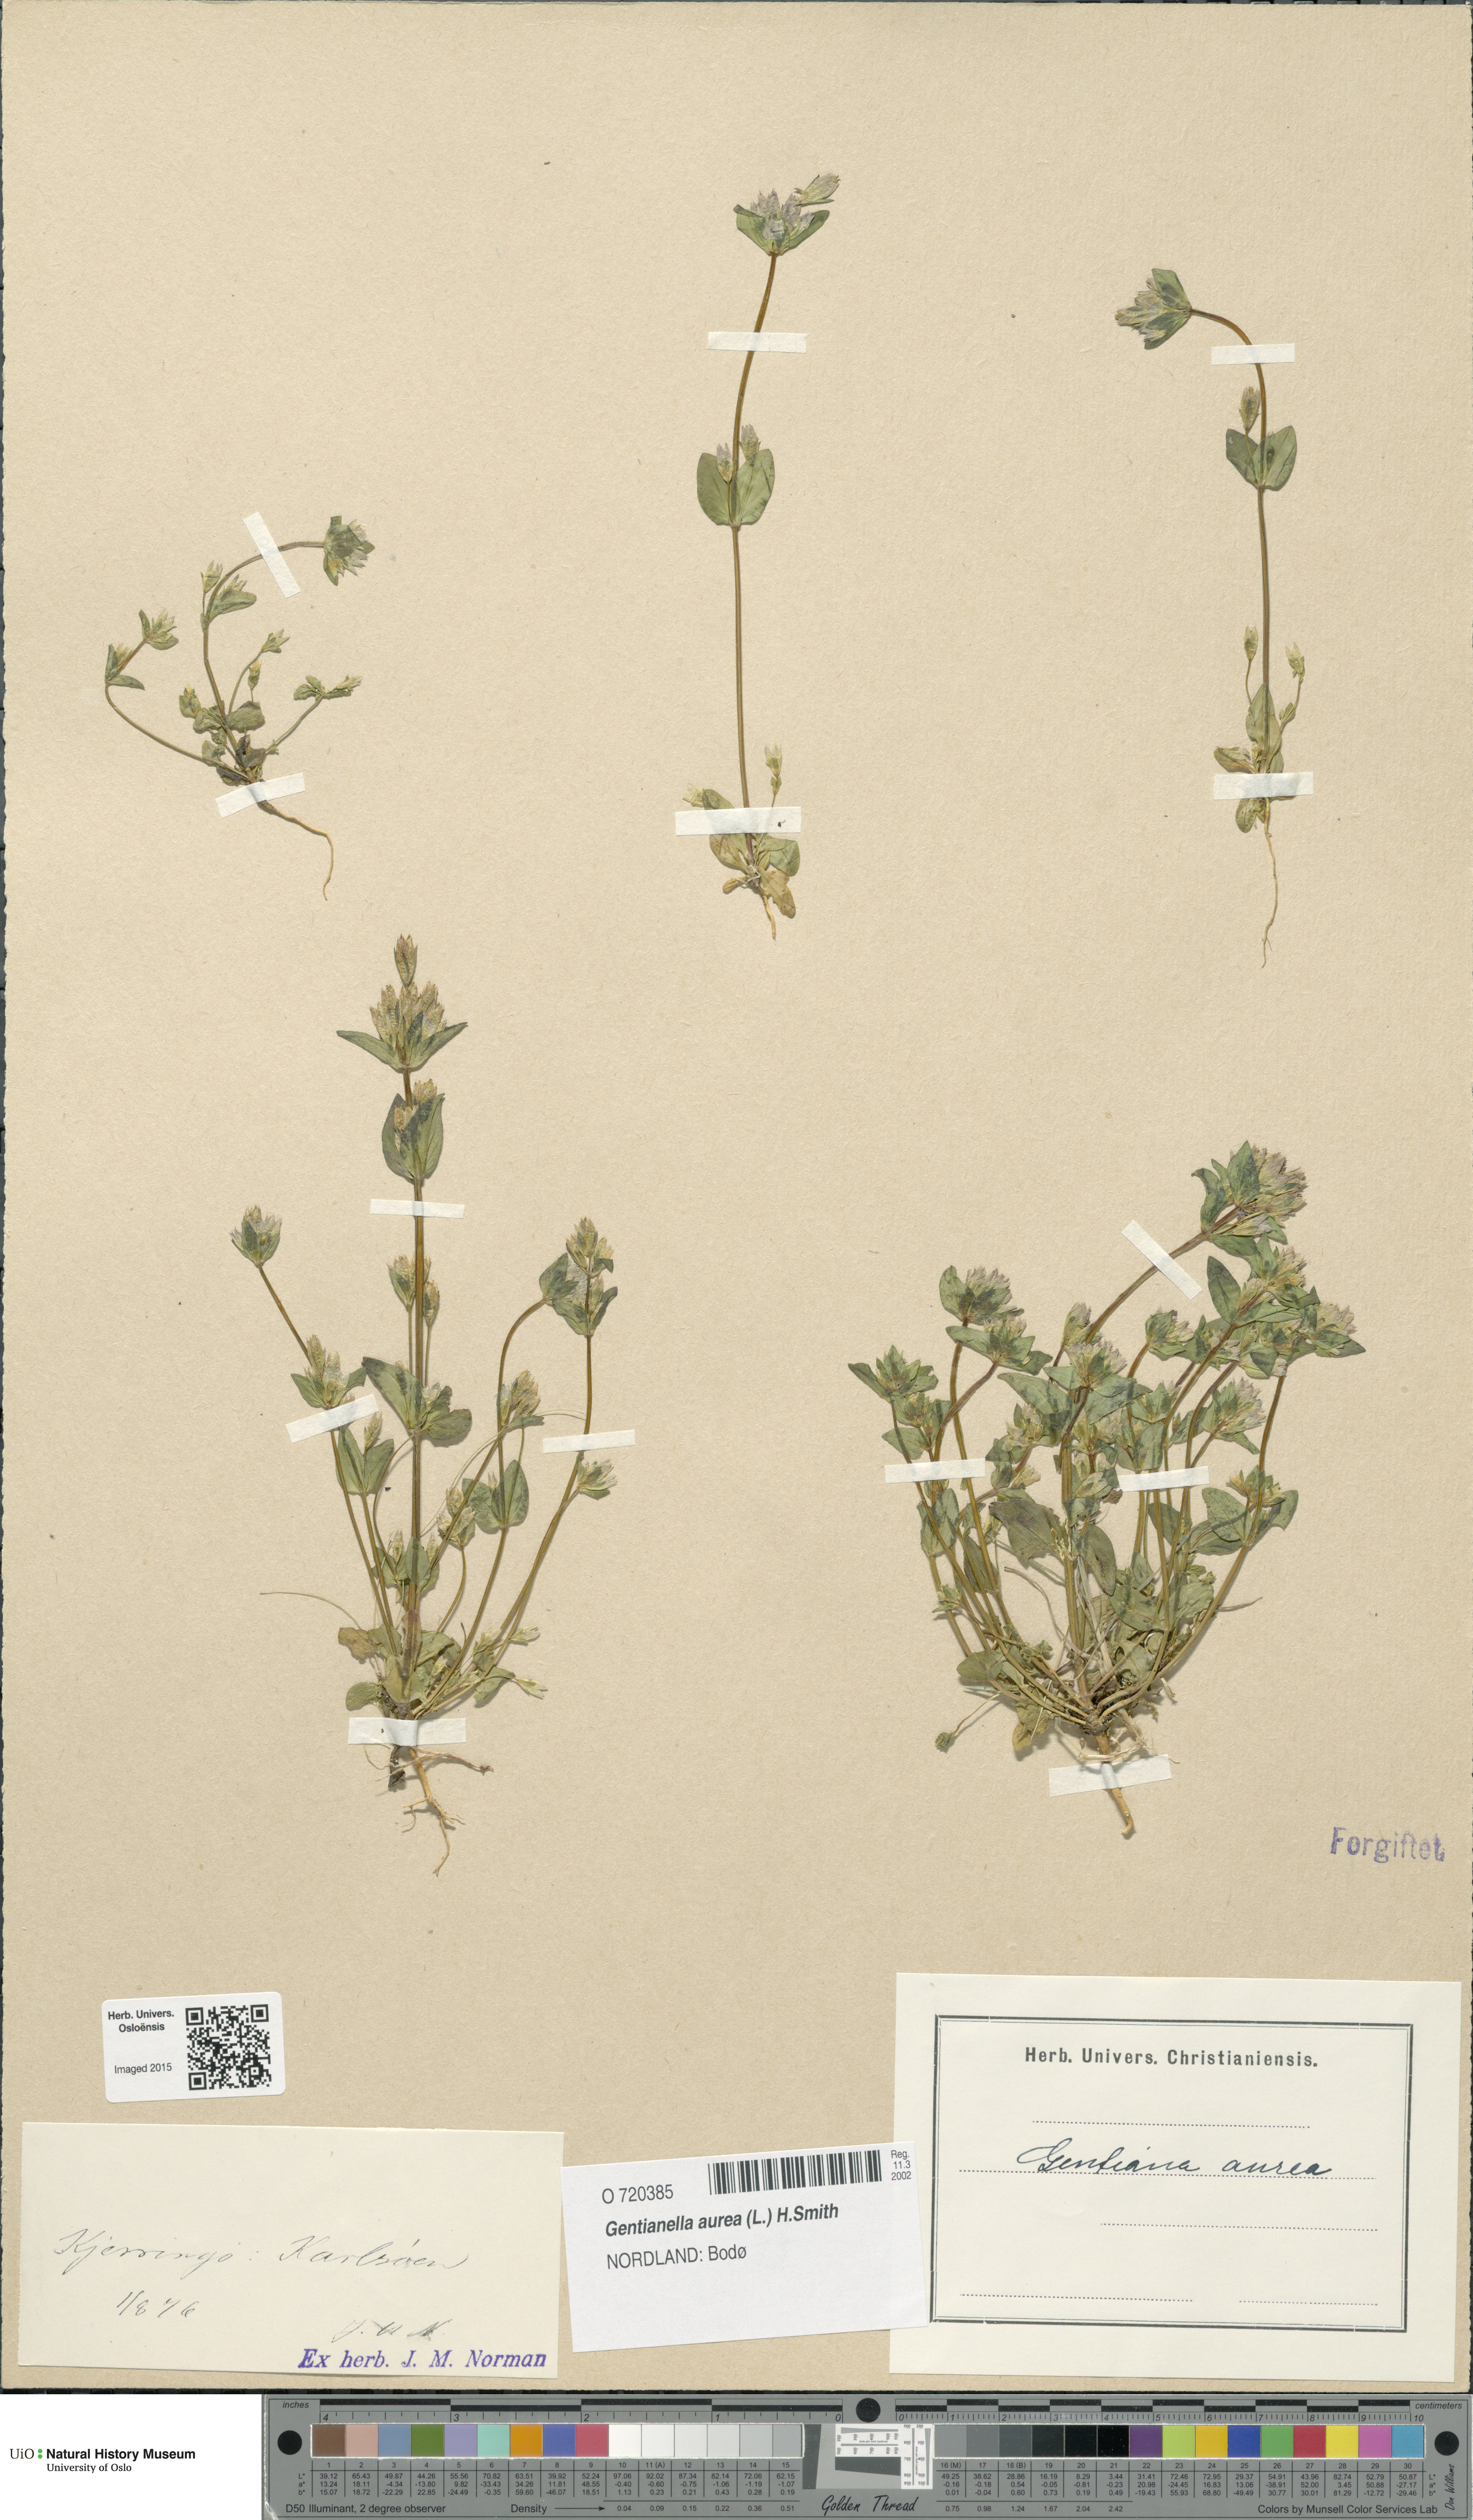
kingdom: Plantae
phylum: Tracheophyta
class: Magnoliopsida
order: Gentianales
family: Gentianaceae
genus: Gentianella
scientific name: Gentianella aurea
